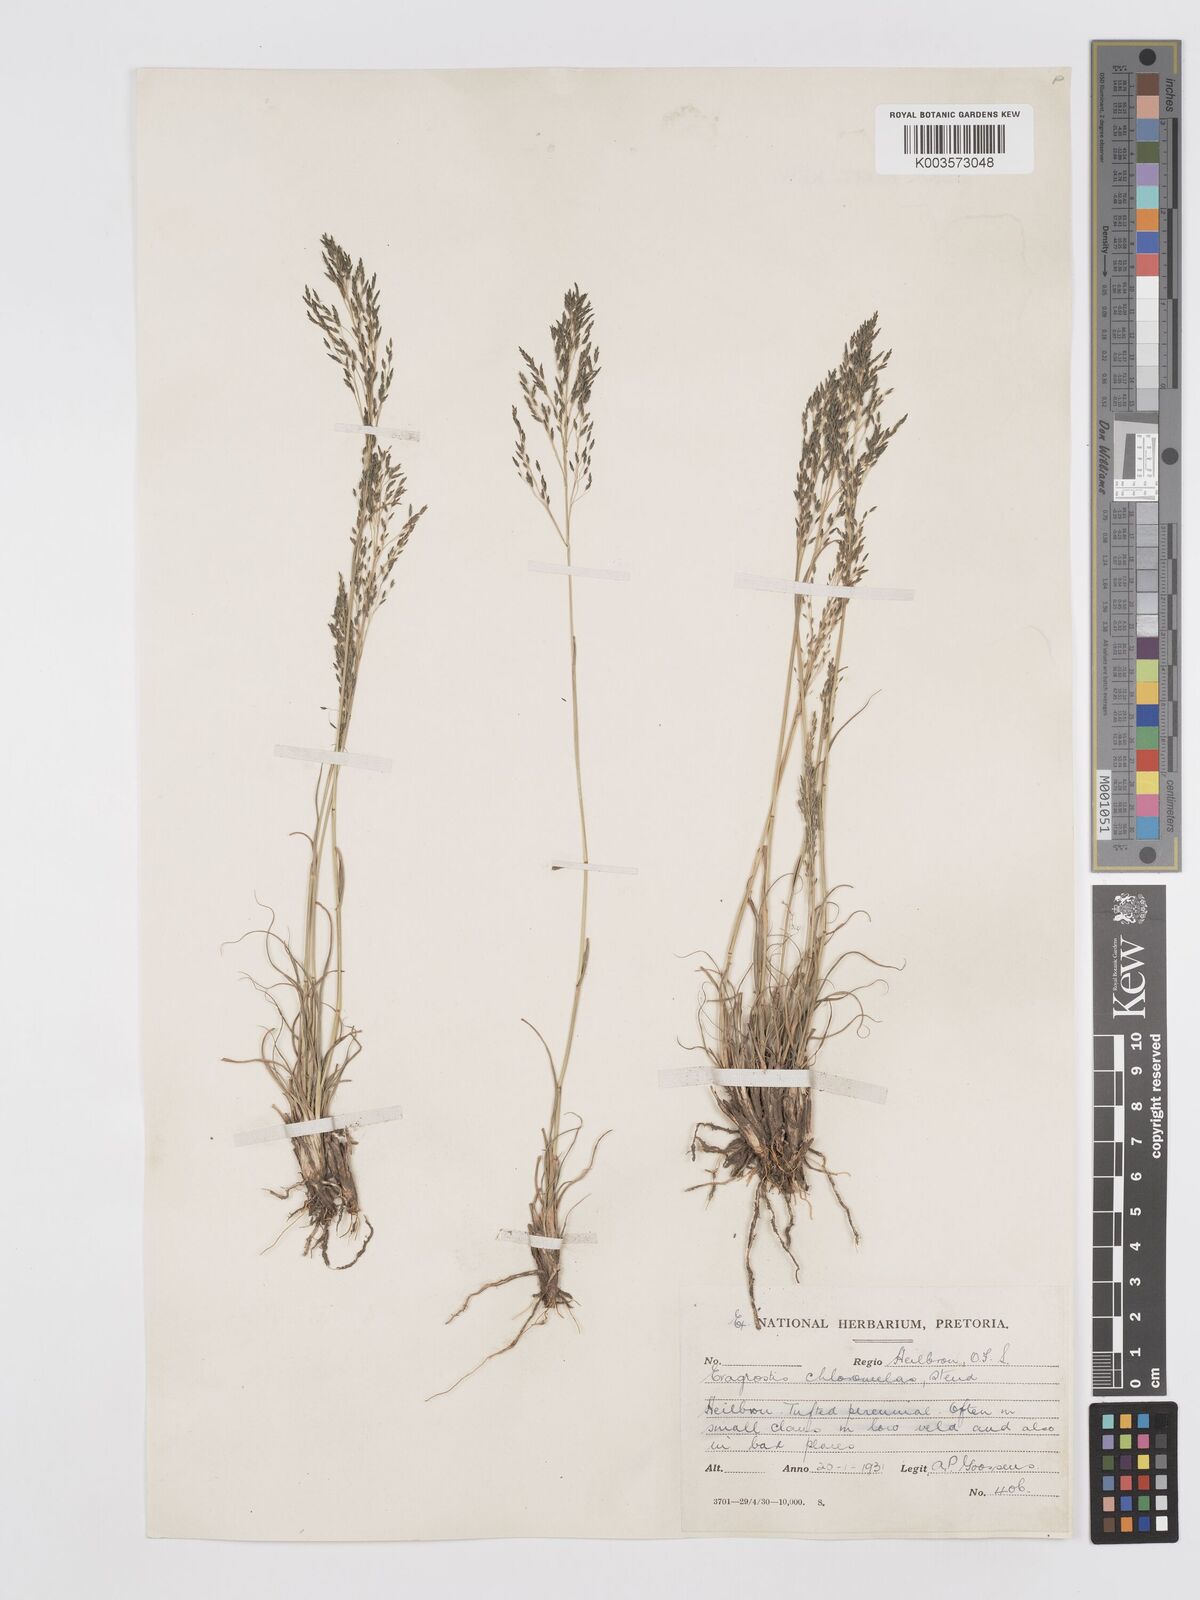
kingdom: Plantae
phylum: Tracheophyta
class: Liliopsida
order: Poales
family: Poaceae
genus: Eragrostis
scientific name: Eragrostis curvula
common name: African love-grass
